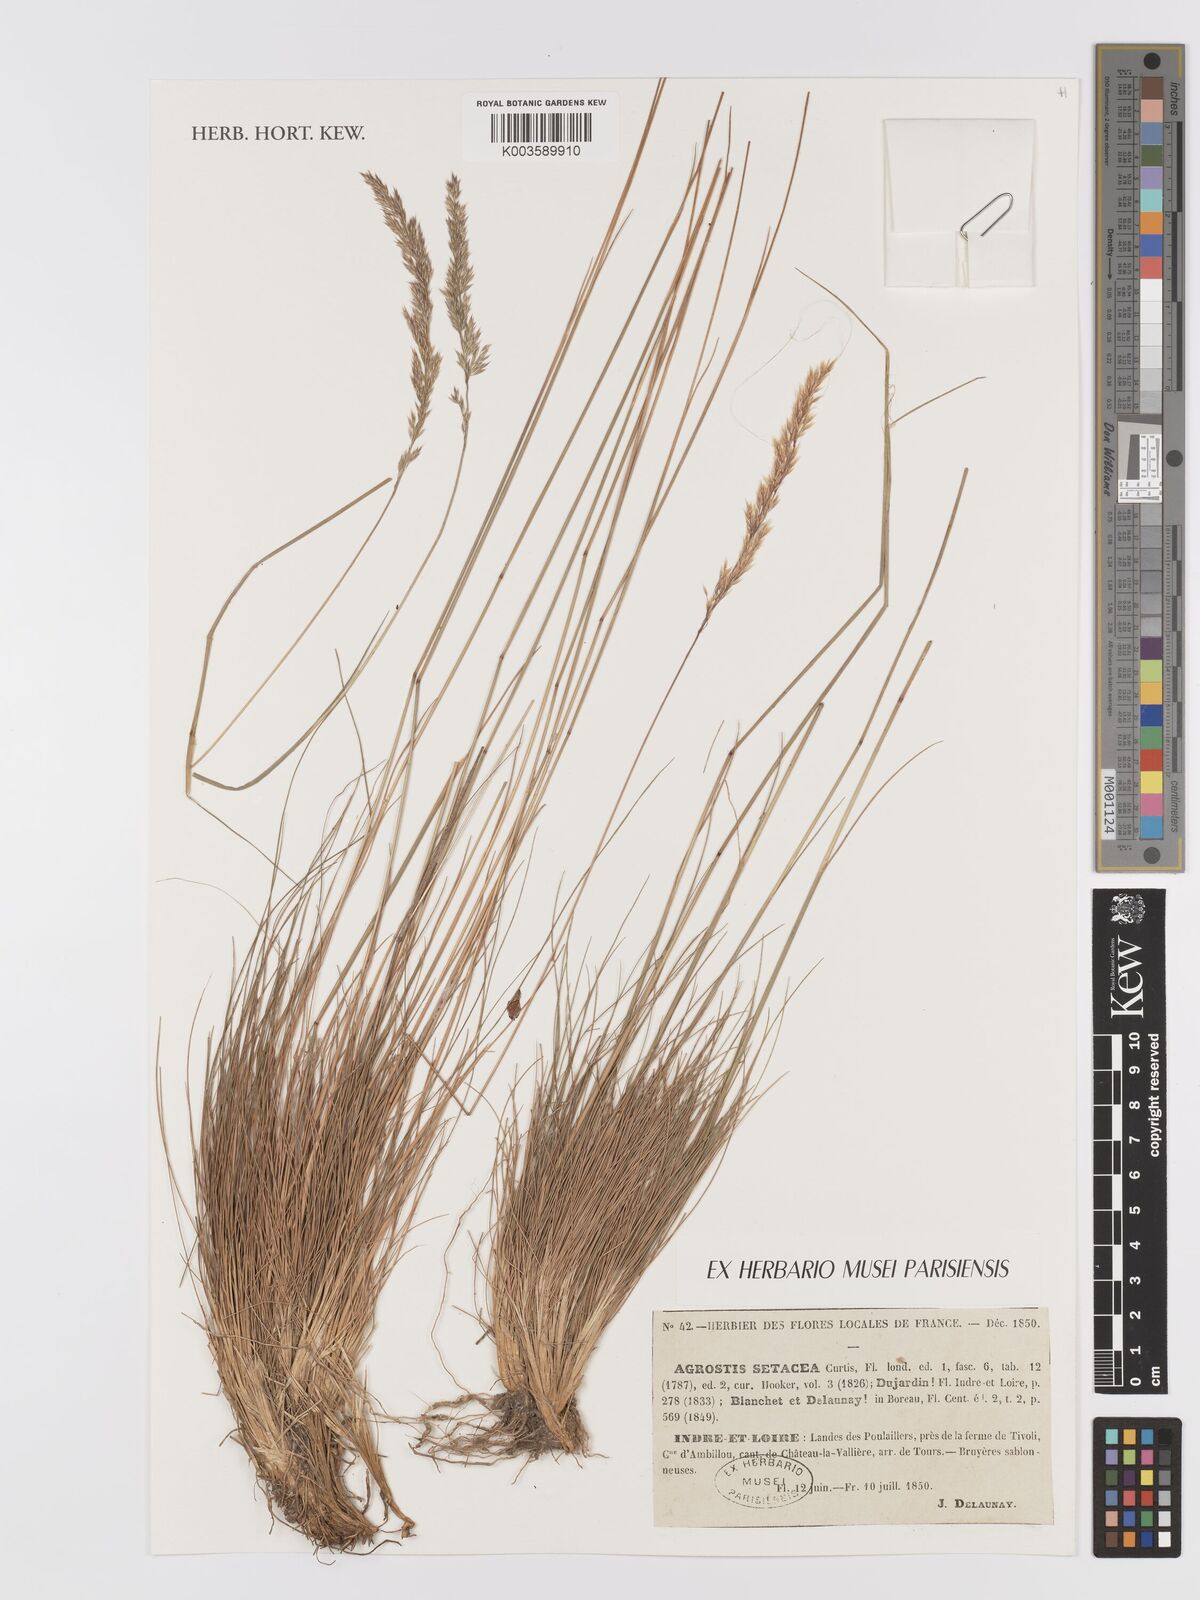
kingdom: Plantae
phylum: Tracheophyta
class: Liliopsida
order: Poales
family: Poaceae
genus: Alpagrostis
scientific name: Alpagrostis setacea
